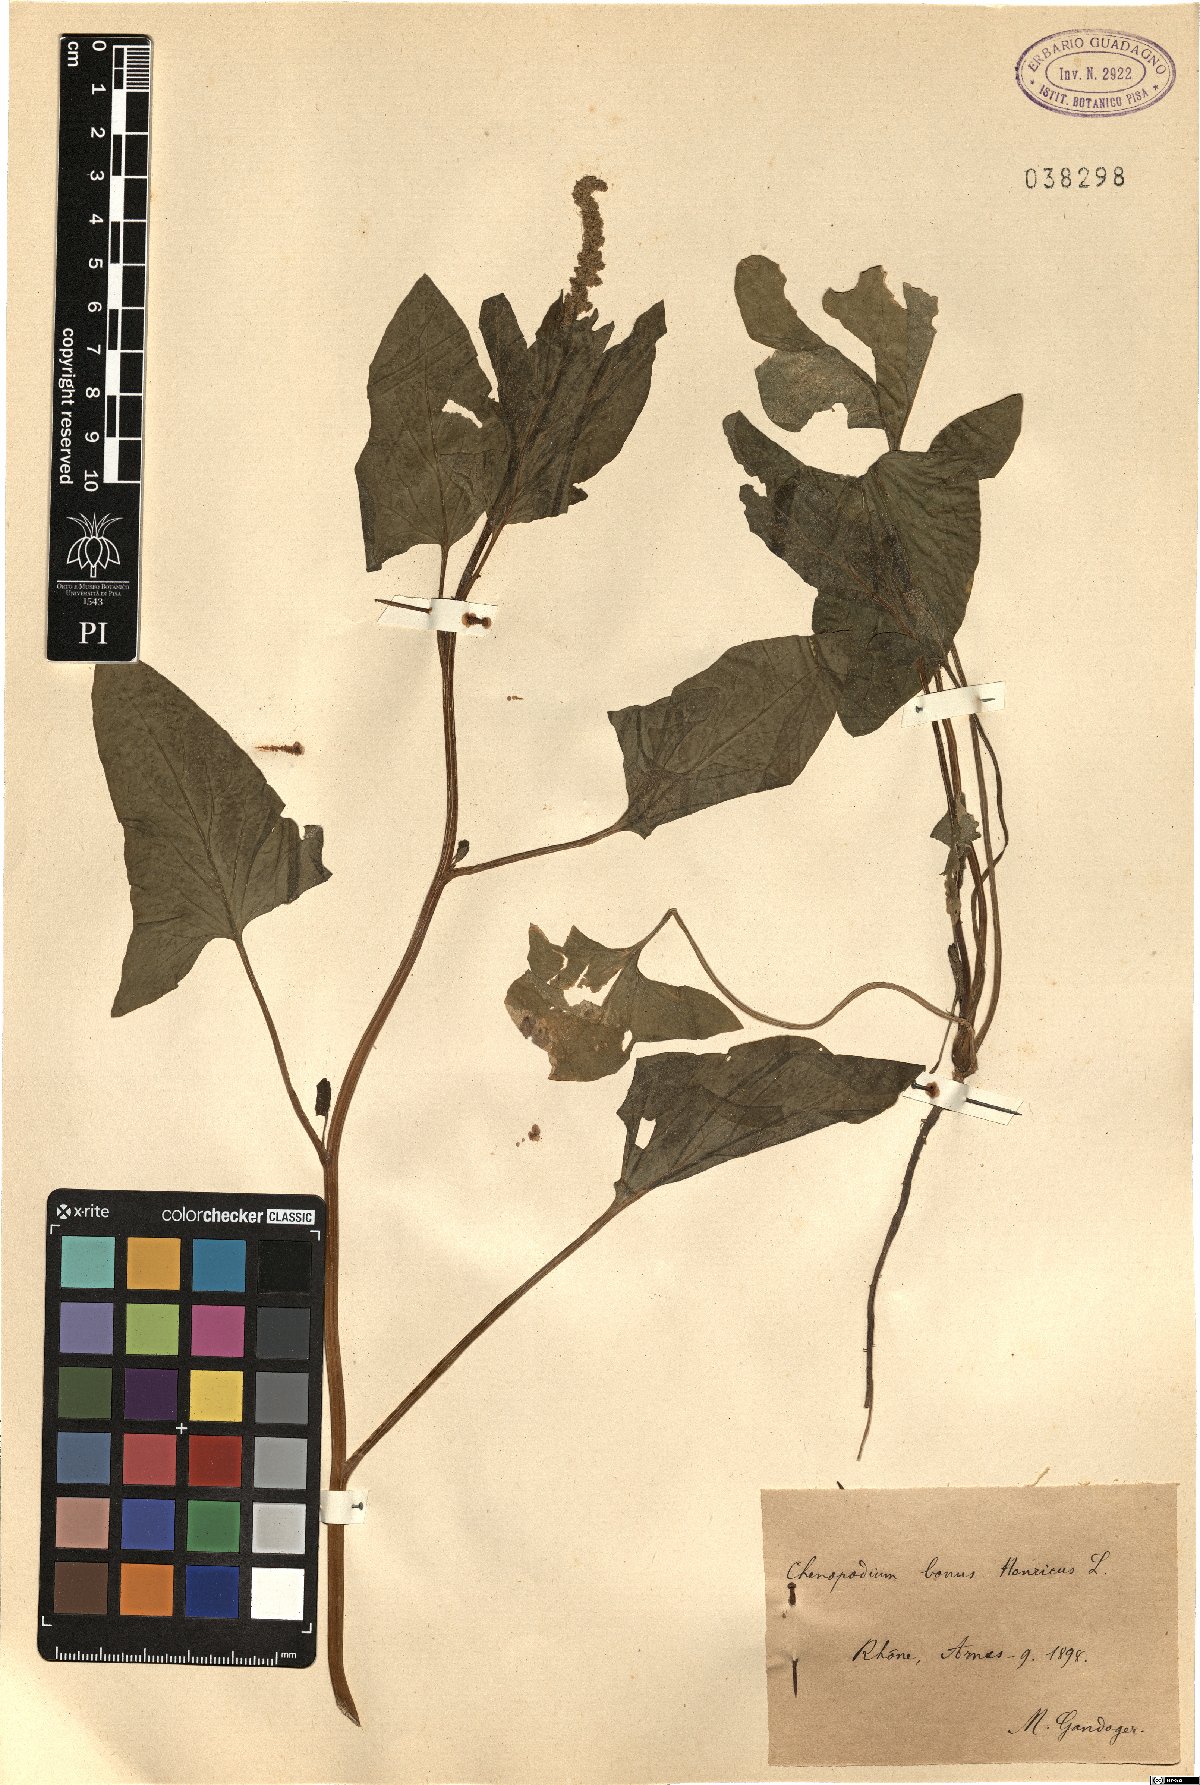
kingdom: Plantae
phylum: Tracheophyta
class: Magnoliopsida
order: Caryophyllales
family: Amaranthaceae
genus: Blitum
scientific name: Blitum bonus-henricus
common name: Good king henry
